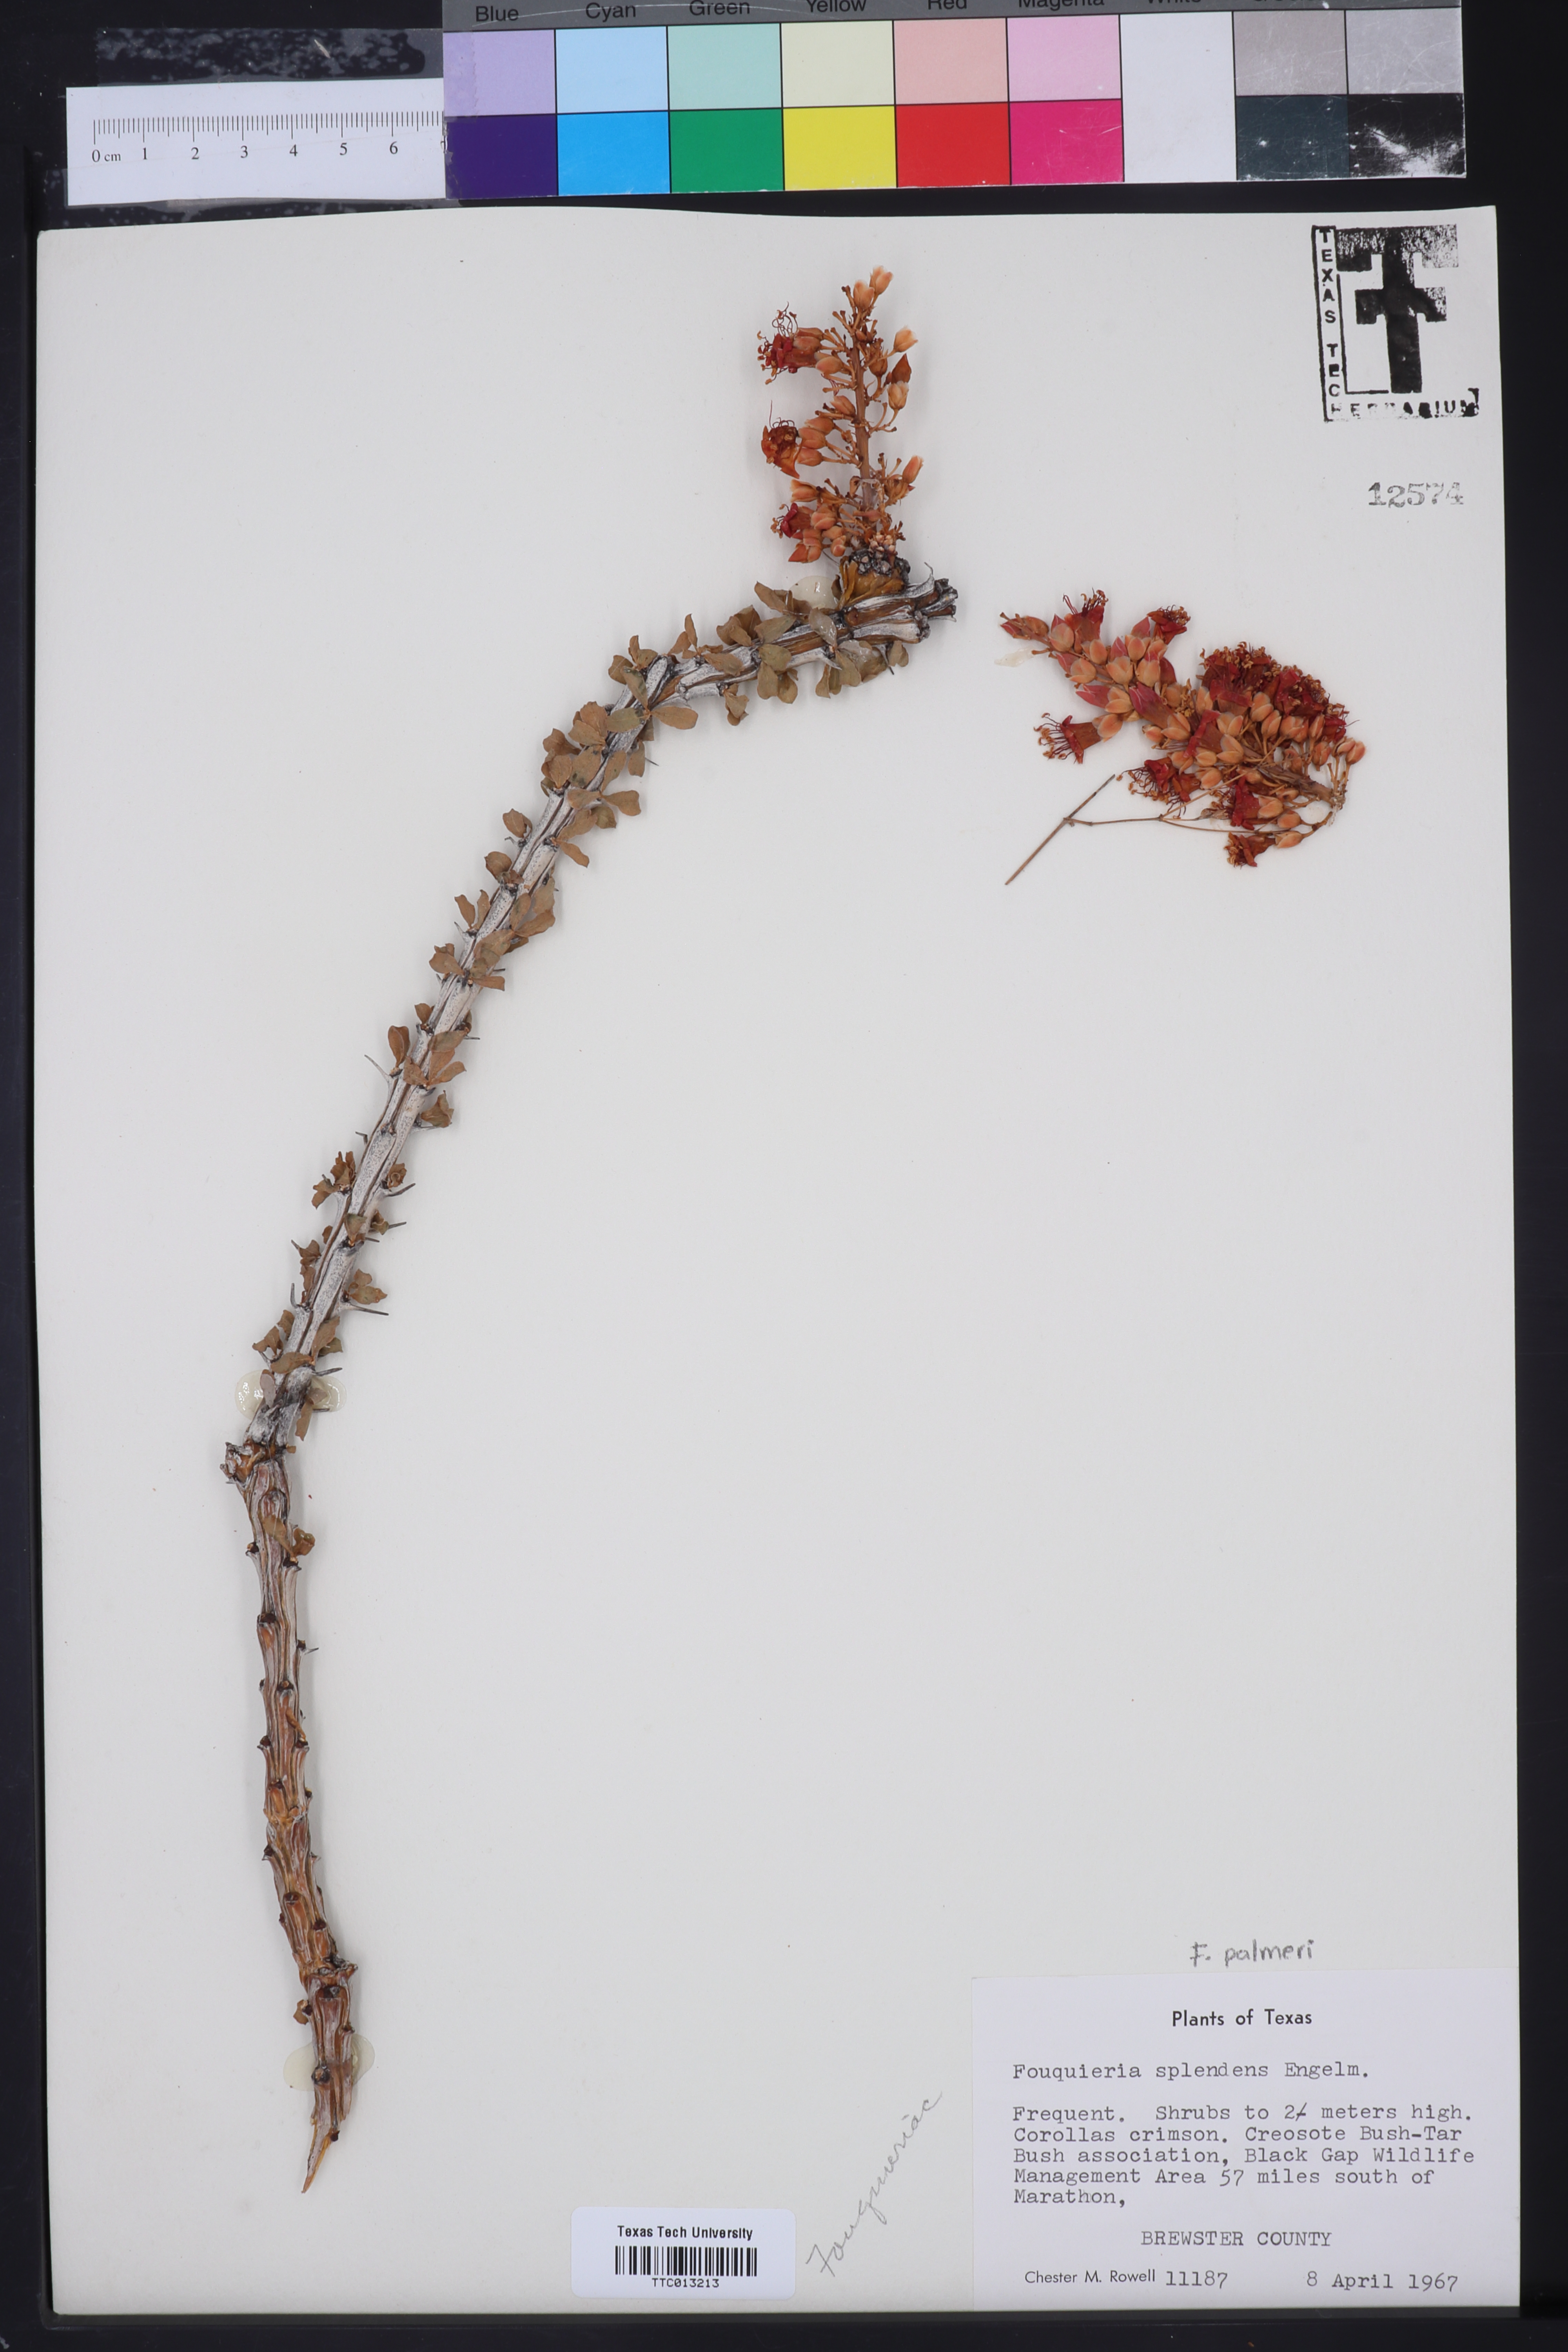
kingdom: Plantae
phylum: Tracheophyta
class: Magnoliopsida
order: Ericales
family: Fouquieriaceae
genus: Fouquieria
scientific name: Fouquieria splendens
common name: Vine-cactus
